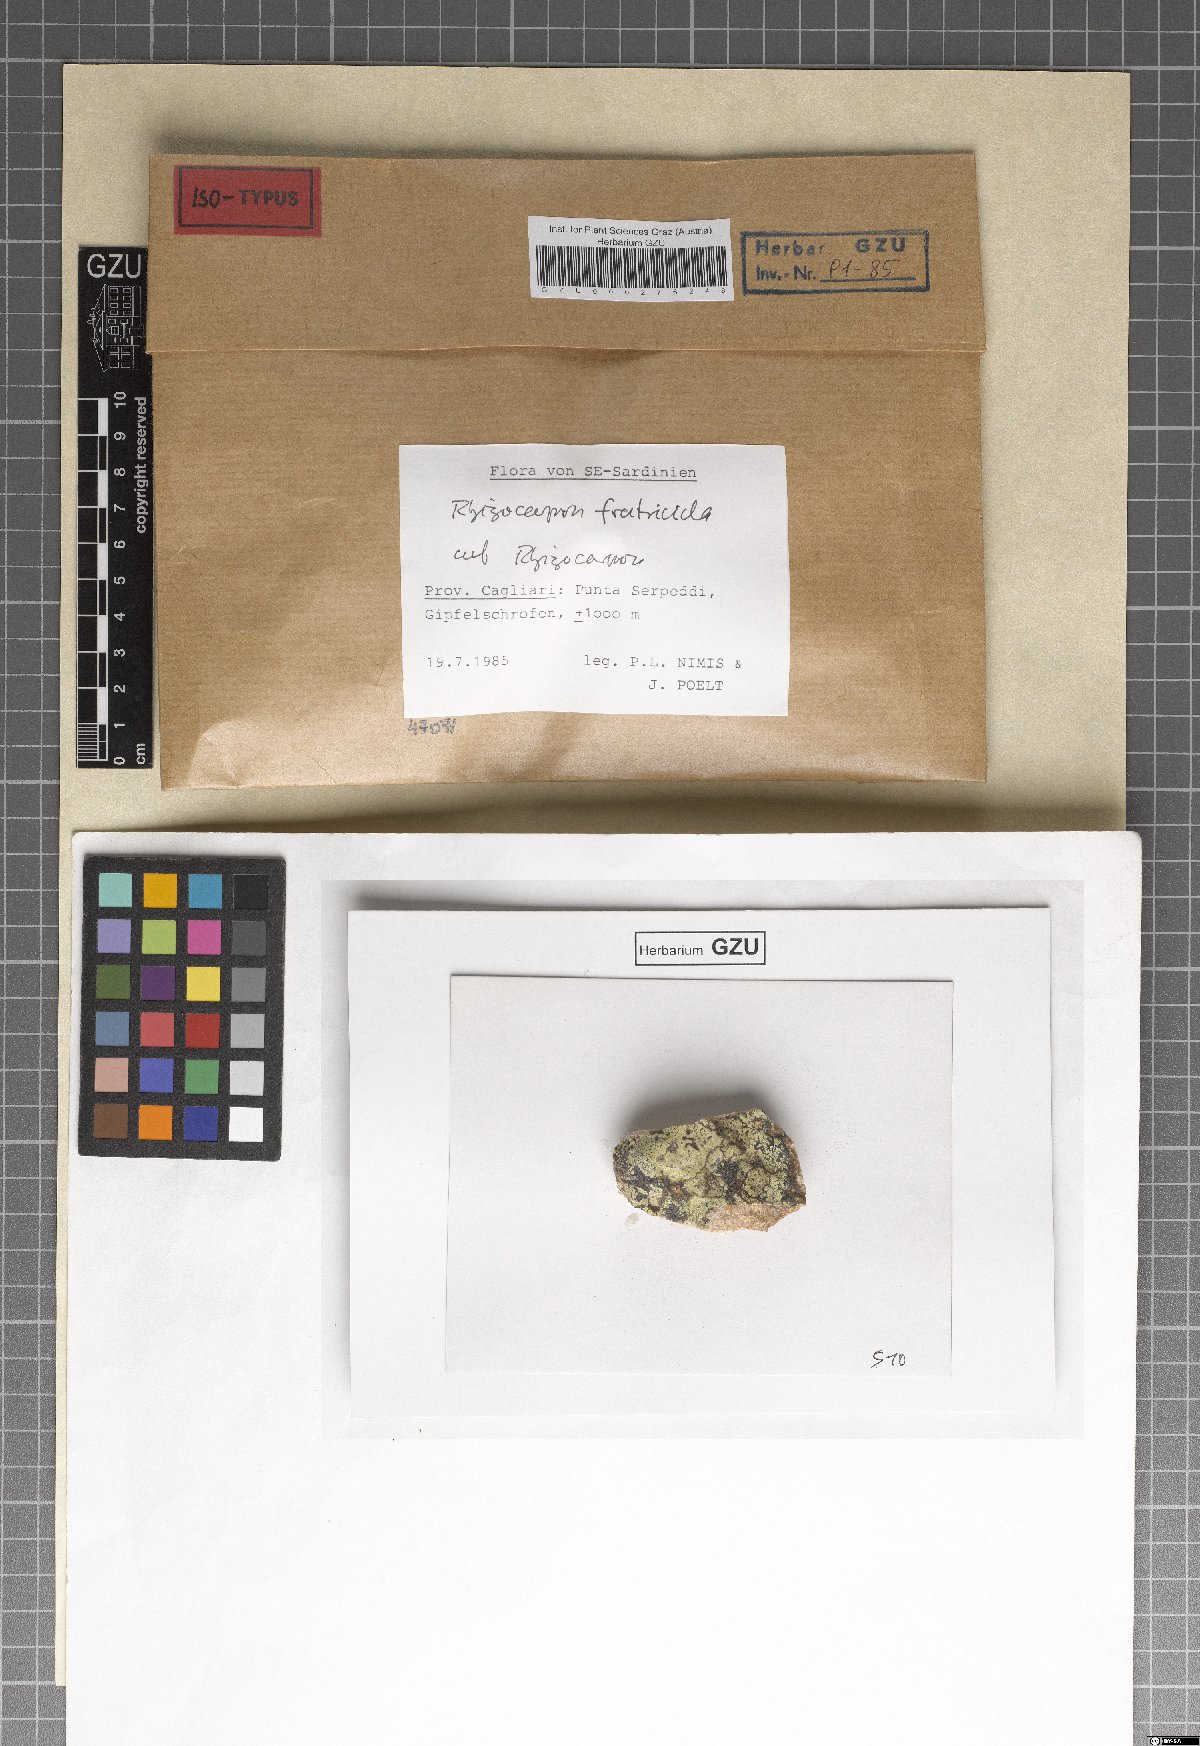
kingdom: Fungi
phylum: Ascomycota
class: Lecanoromycetes
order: Rhizocarpales
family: Rhizocarpaceae
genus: Rhizocarpon
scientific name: Rhizocarpon fratricida
